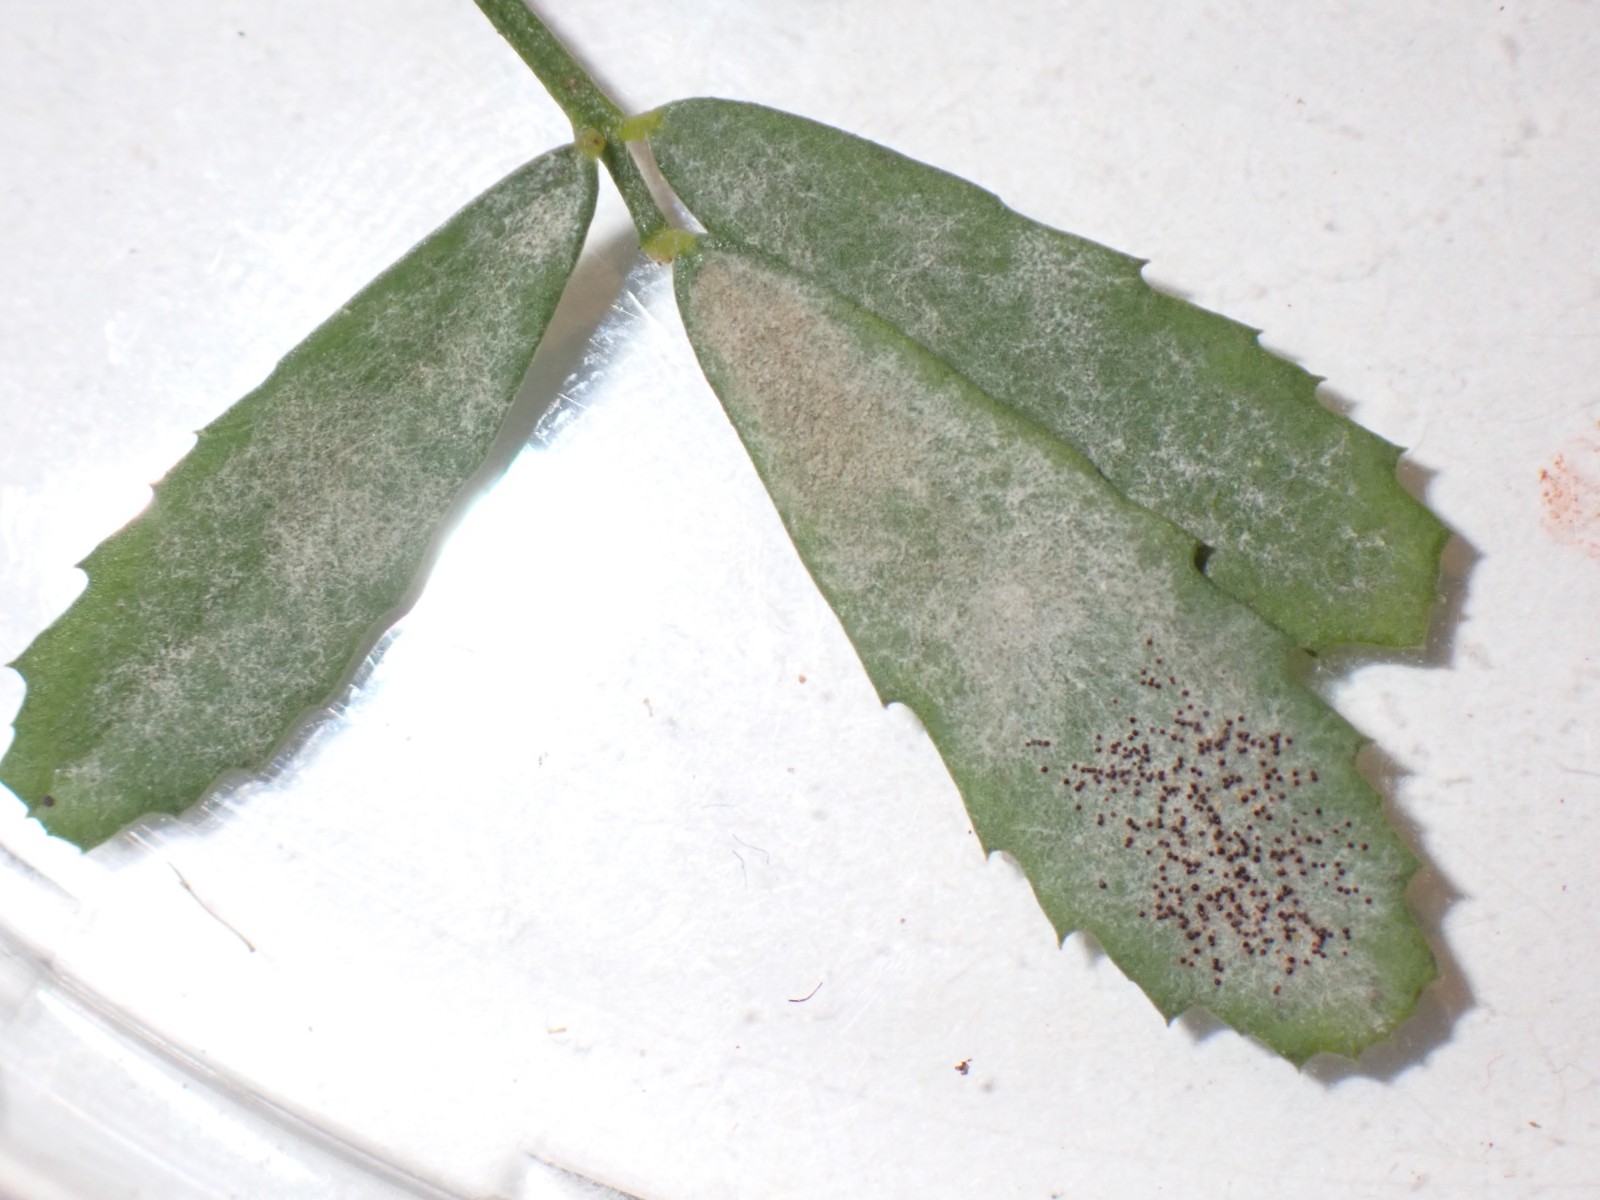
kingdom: Fungi
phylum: Ascomycota
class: Leotiomycetes
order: Helotiales
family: Erysiphaceae
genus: Erysiphe
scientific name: Erysiphe trifoliorum
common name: kløver-meldug
